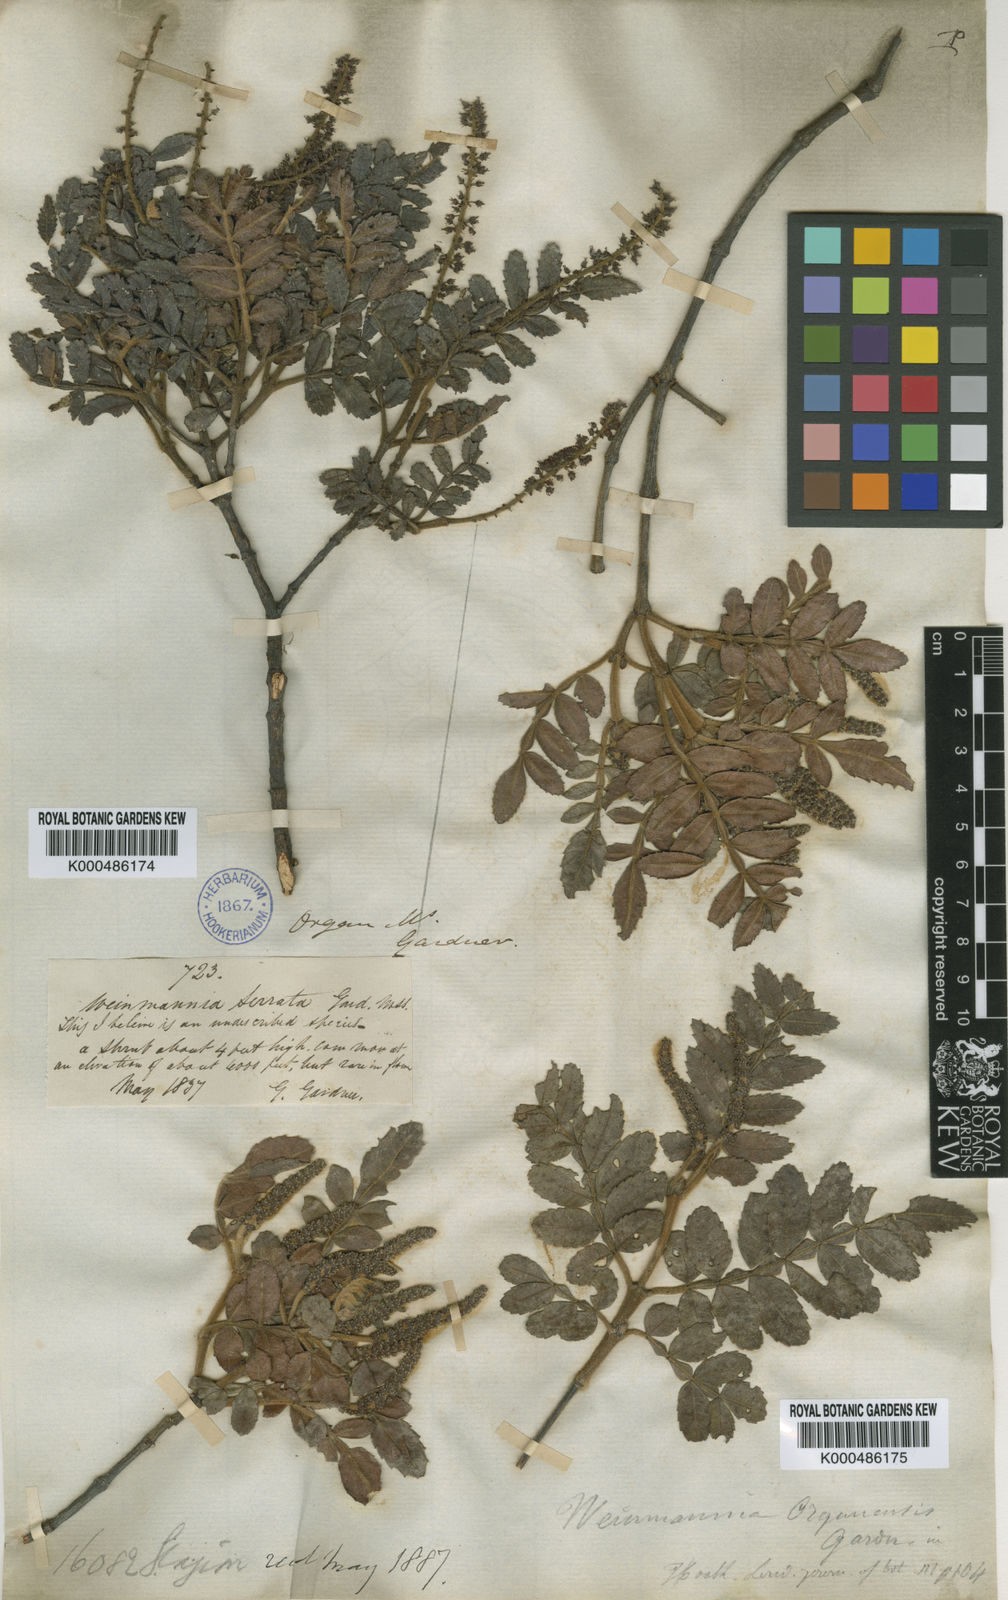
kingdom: Plantae
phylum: Tracheophyta
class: Magnoliopsida
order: Oxalidales
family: Cunoniaceae
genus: Weinmannia
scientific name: Weinmannia organensis
